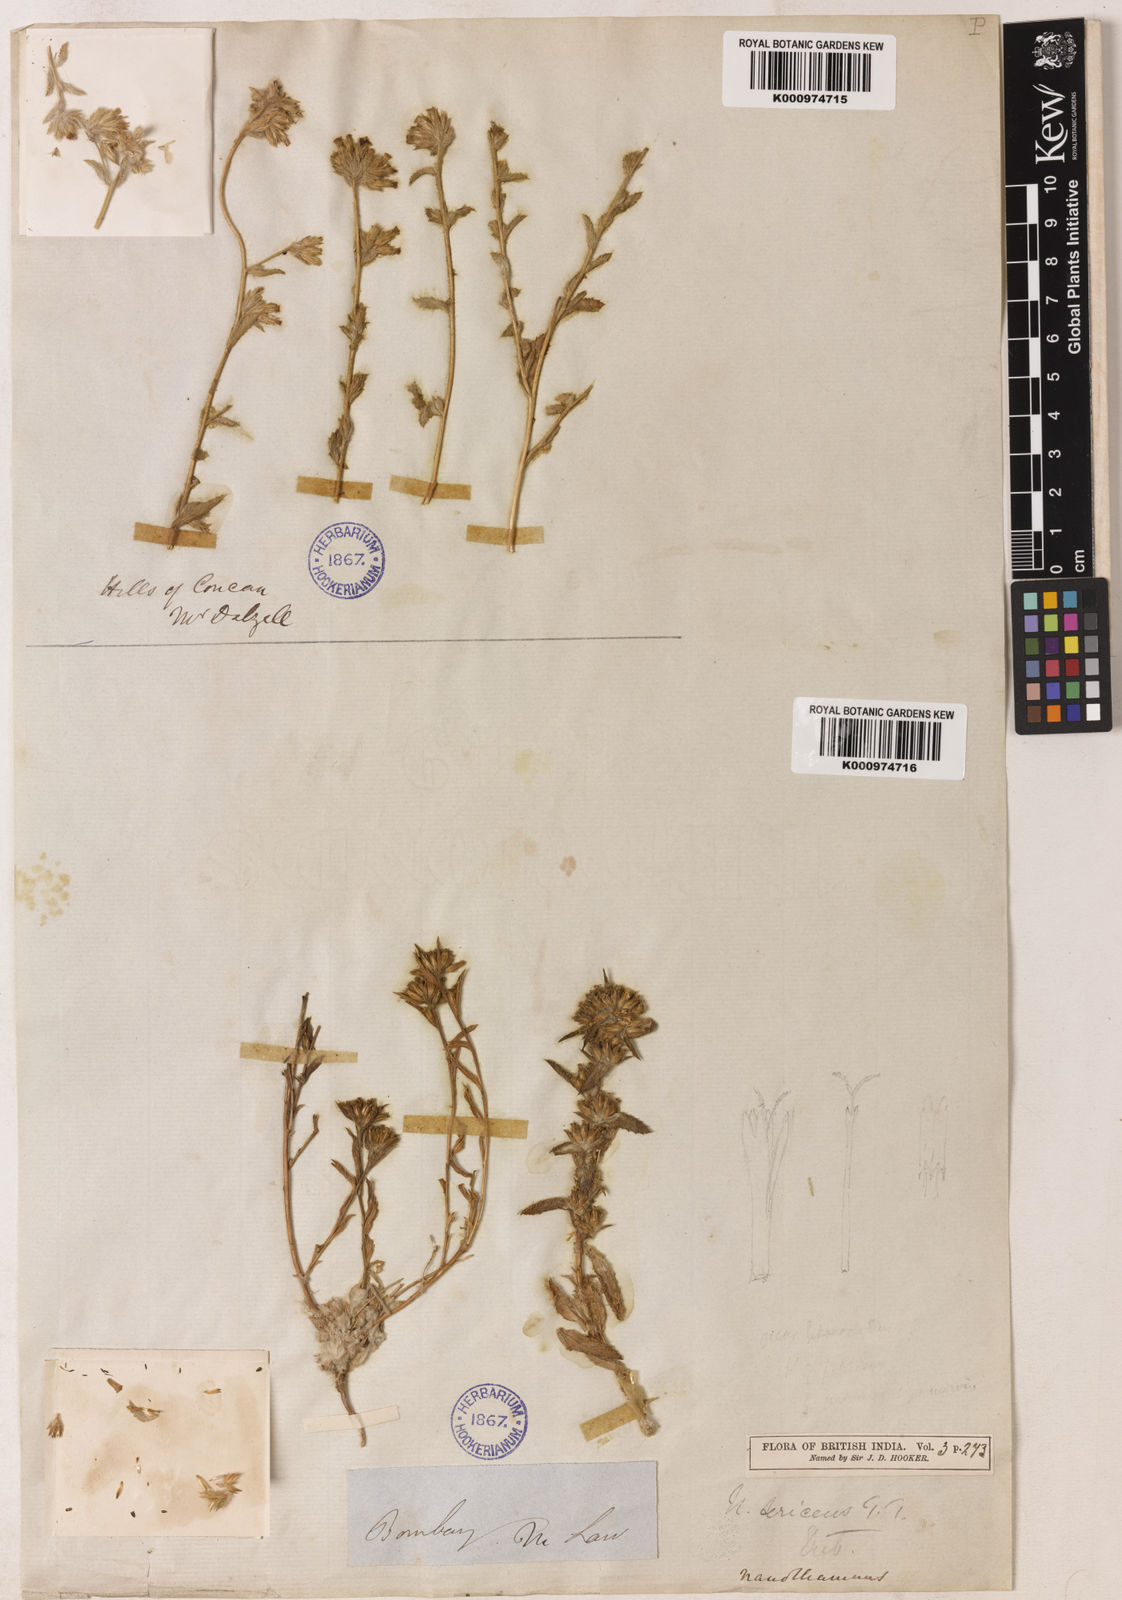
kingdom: Plantae
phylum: Tracheophyta
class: Magnoliopsida
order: Asterales
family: Asteraceae
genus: Nanothamnus
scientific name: Nanothamnus sericeus
